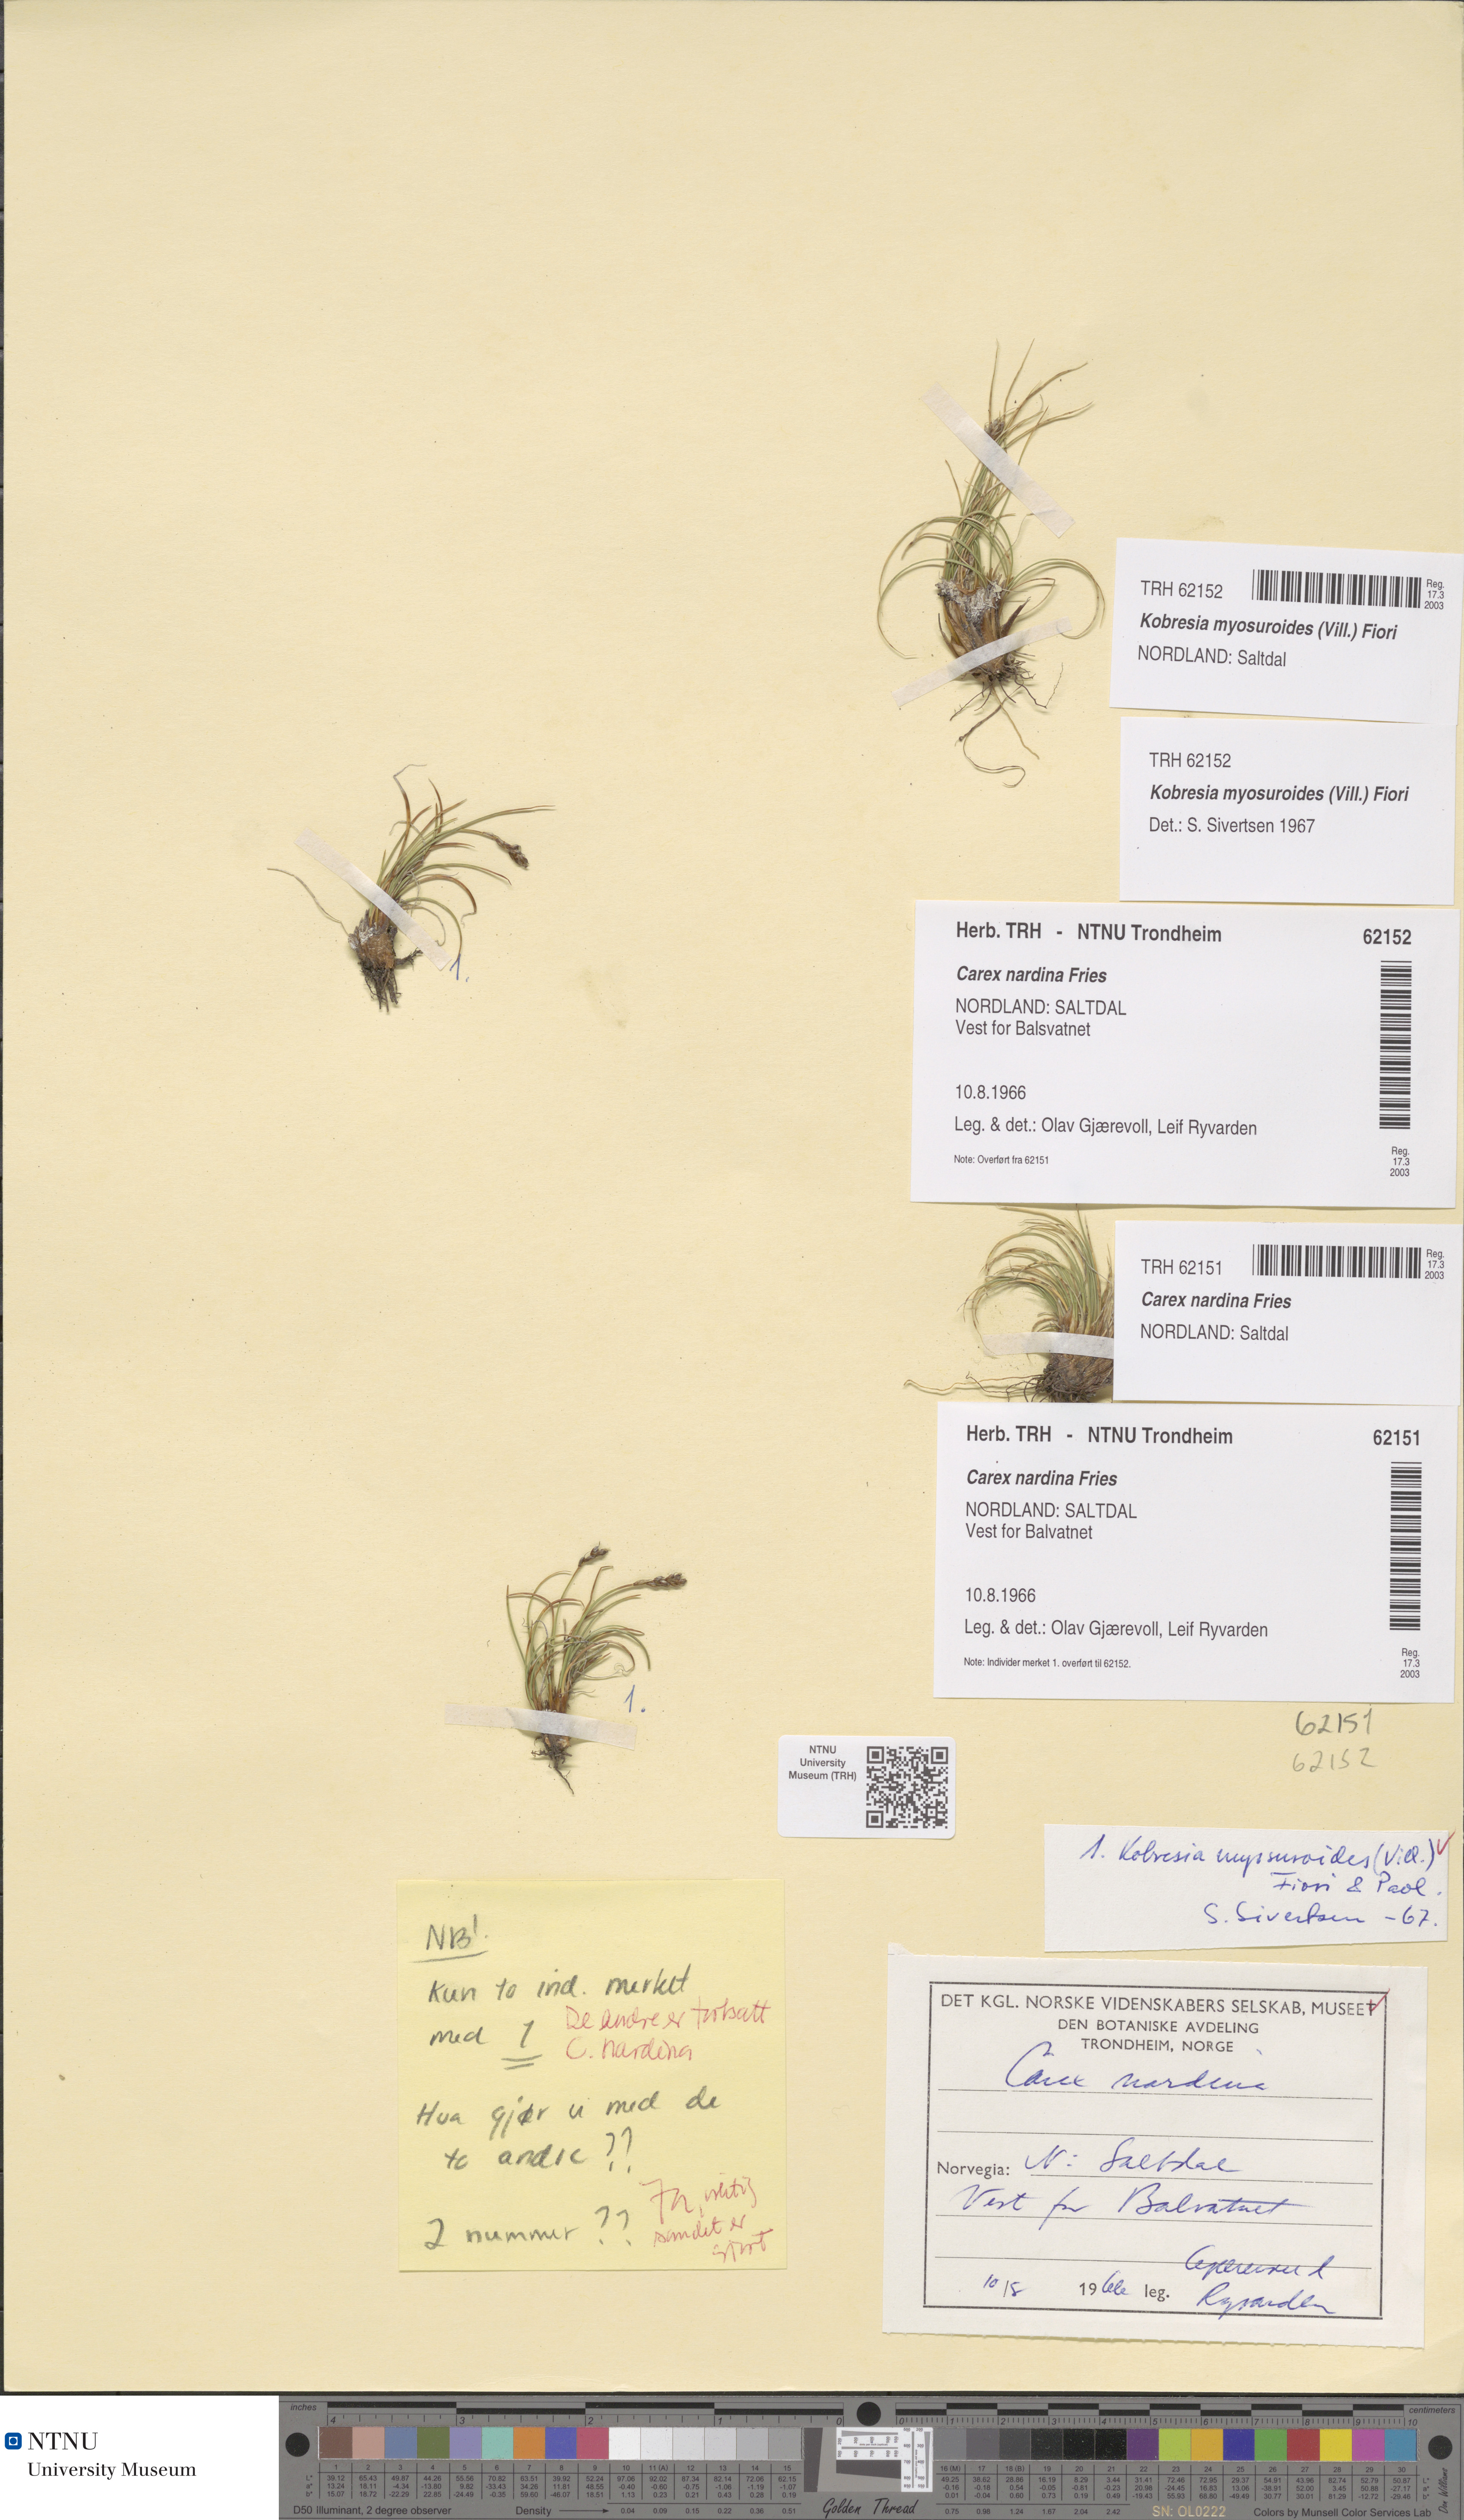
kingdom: Plantae
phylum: Tracheophyta
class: Liliopsida
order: Poales
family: Cyperaceae
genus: Carex
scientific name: Carex myosuroides
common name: Bellard's bog sedge
